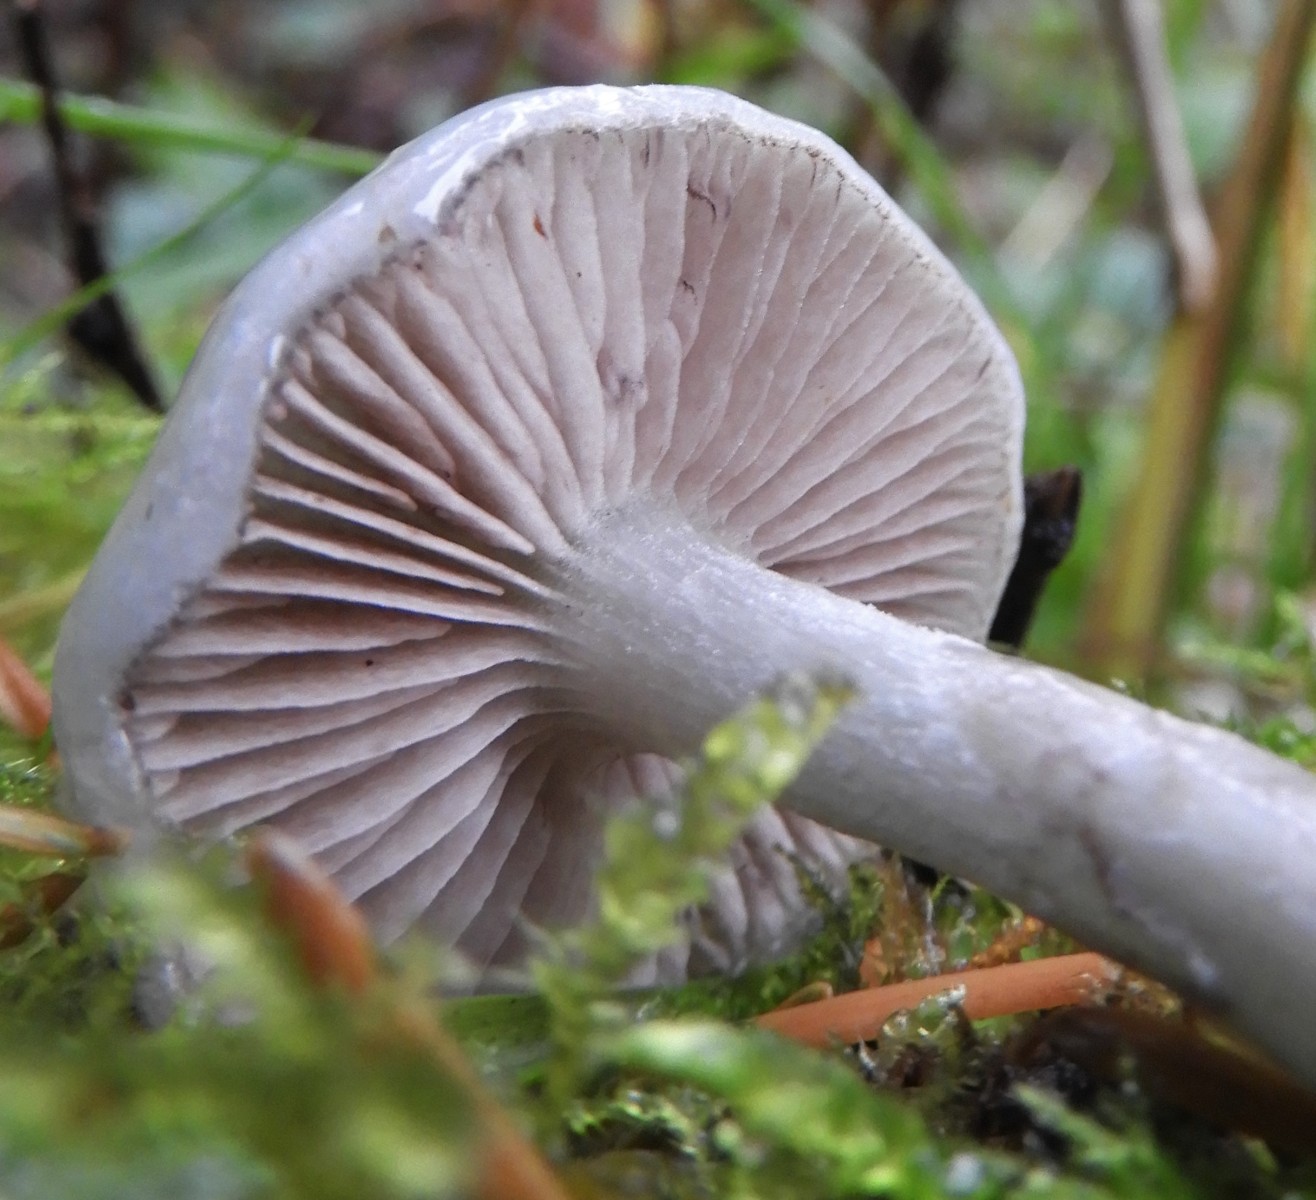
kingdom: Fungi
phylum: Basidiomycota
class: Agaricomycetes
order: Agaricales
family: Strophariaceae
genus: Stropharia
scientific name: Stropharia cyanea
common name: blågrøn bredblad
